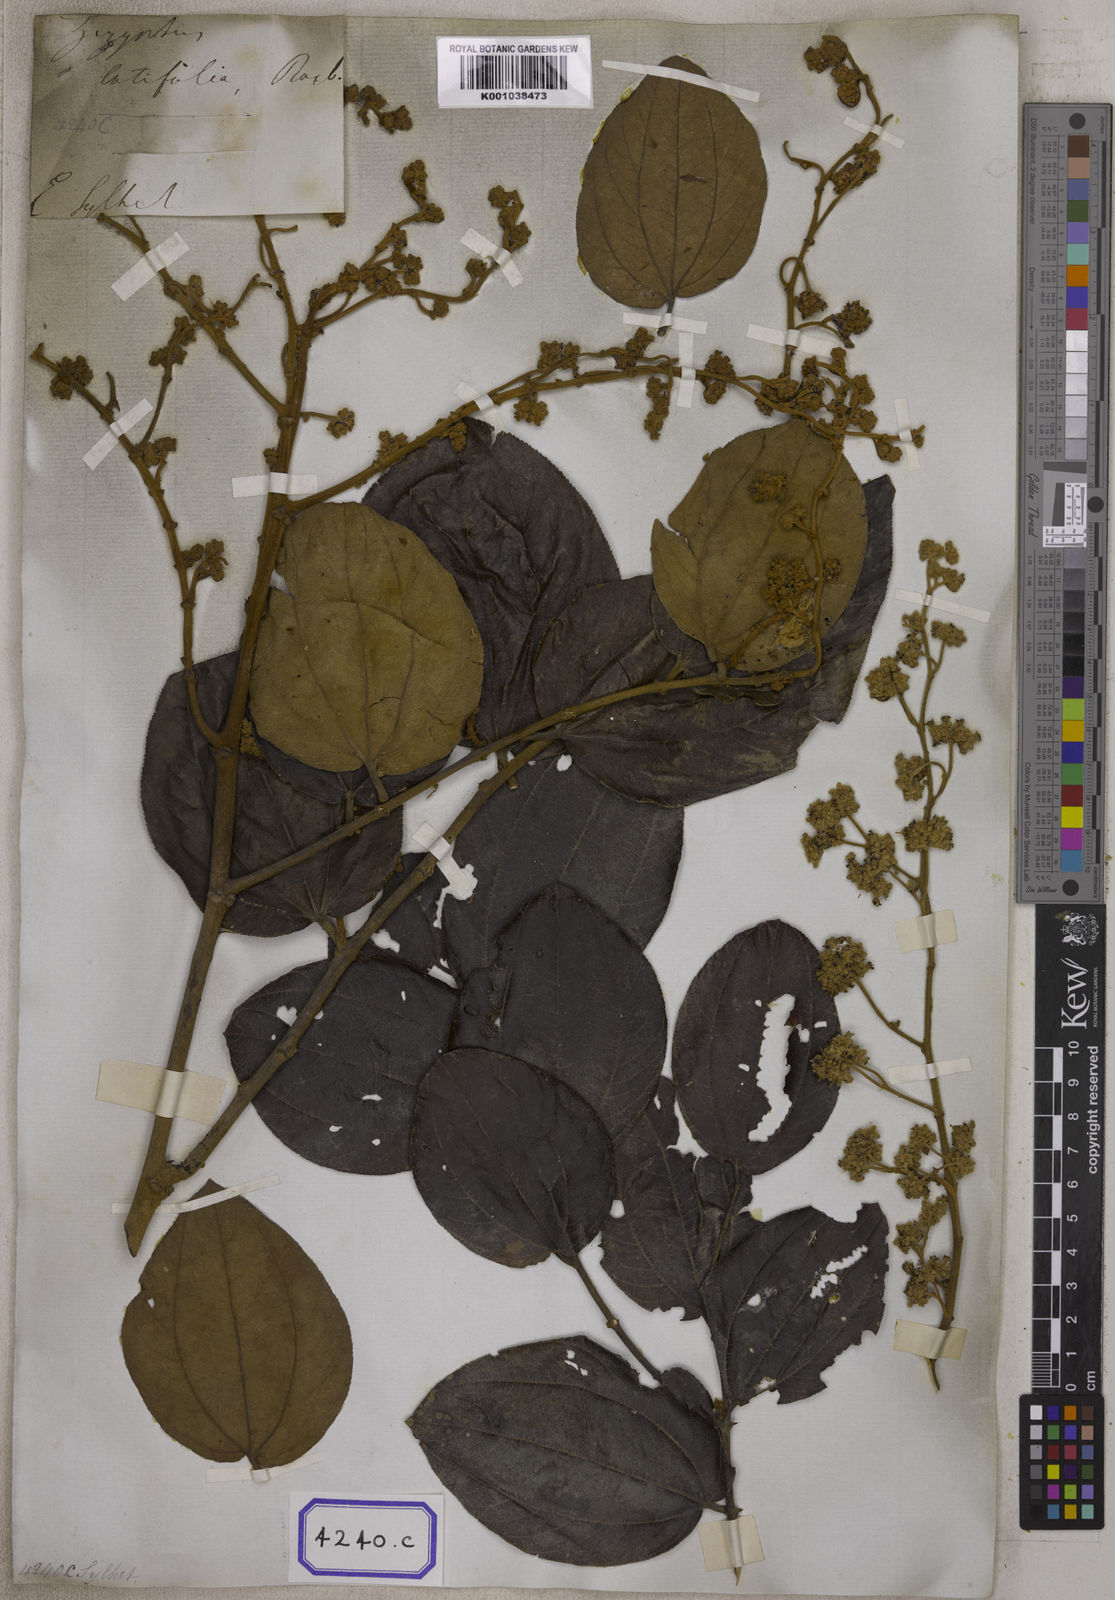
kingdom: Plantae
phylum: Tracheophyta
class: Magnoliopsida
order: Rosales
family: Rhamnaceae
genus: Ziziphus
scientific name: Ziziphus rugosa
